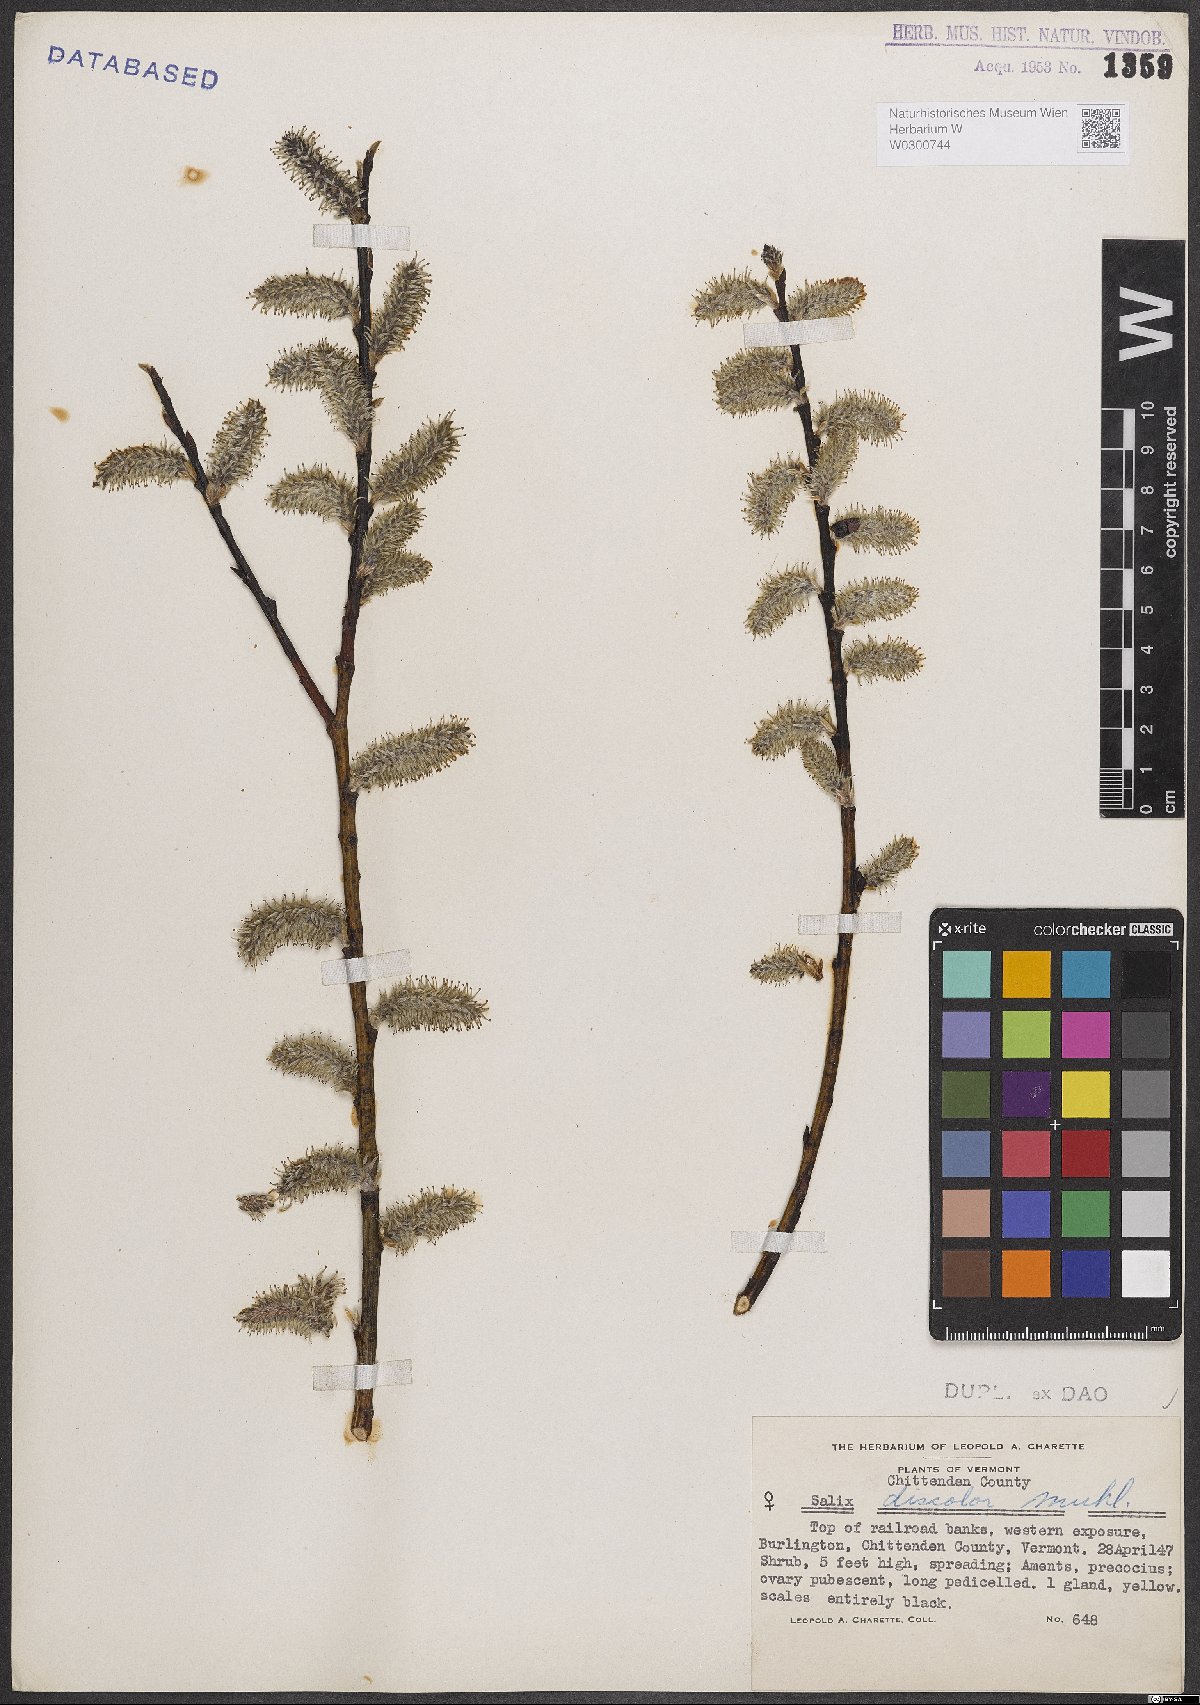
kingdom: Plantae
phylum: Tracheophyta
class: Magnoliopsida
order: Malpighiales
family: Salicaceae
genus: Salix
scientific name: Salix discolor
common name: Glaucous willow
